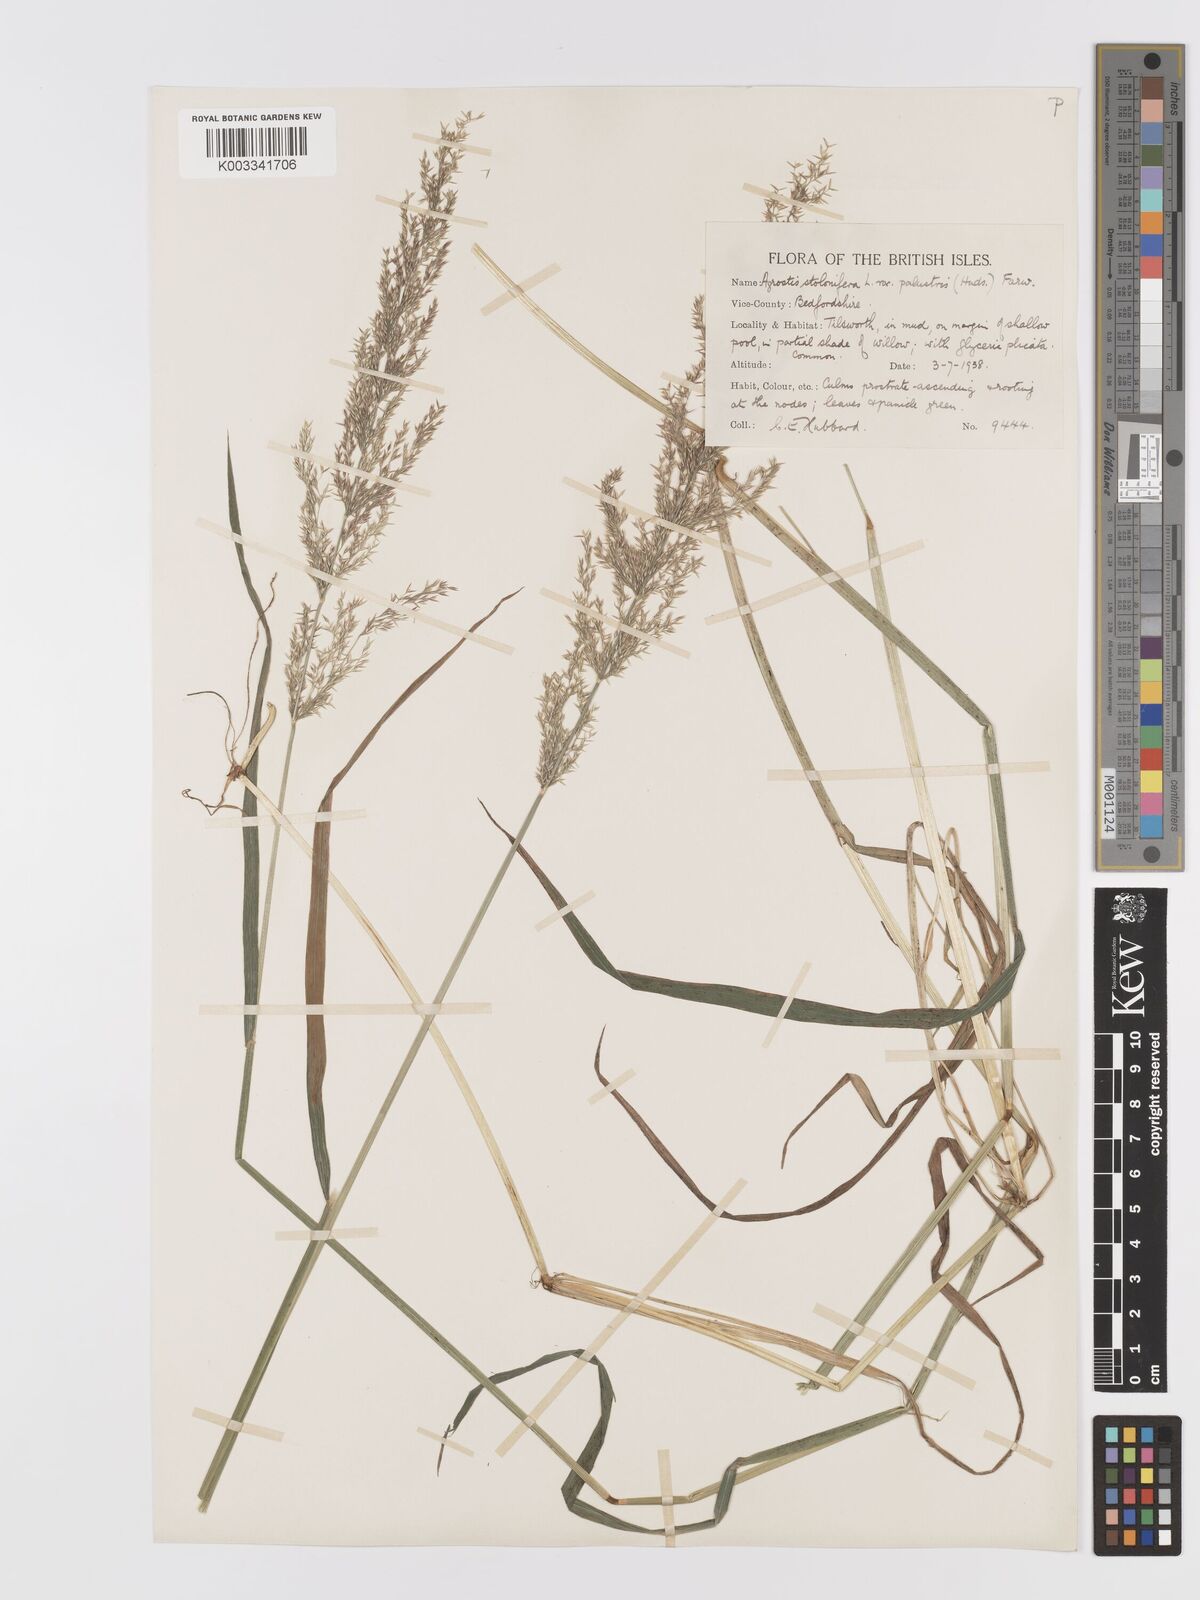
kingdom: Plantae
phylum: Tracheophyta
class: Liliopsida
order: Poales
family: Poaceae
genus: Agrostis
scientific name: Agrostis stolonifera
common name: Creeping bentgrass
